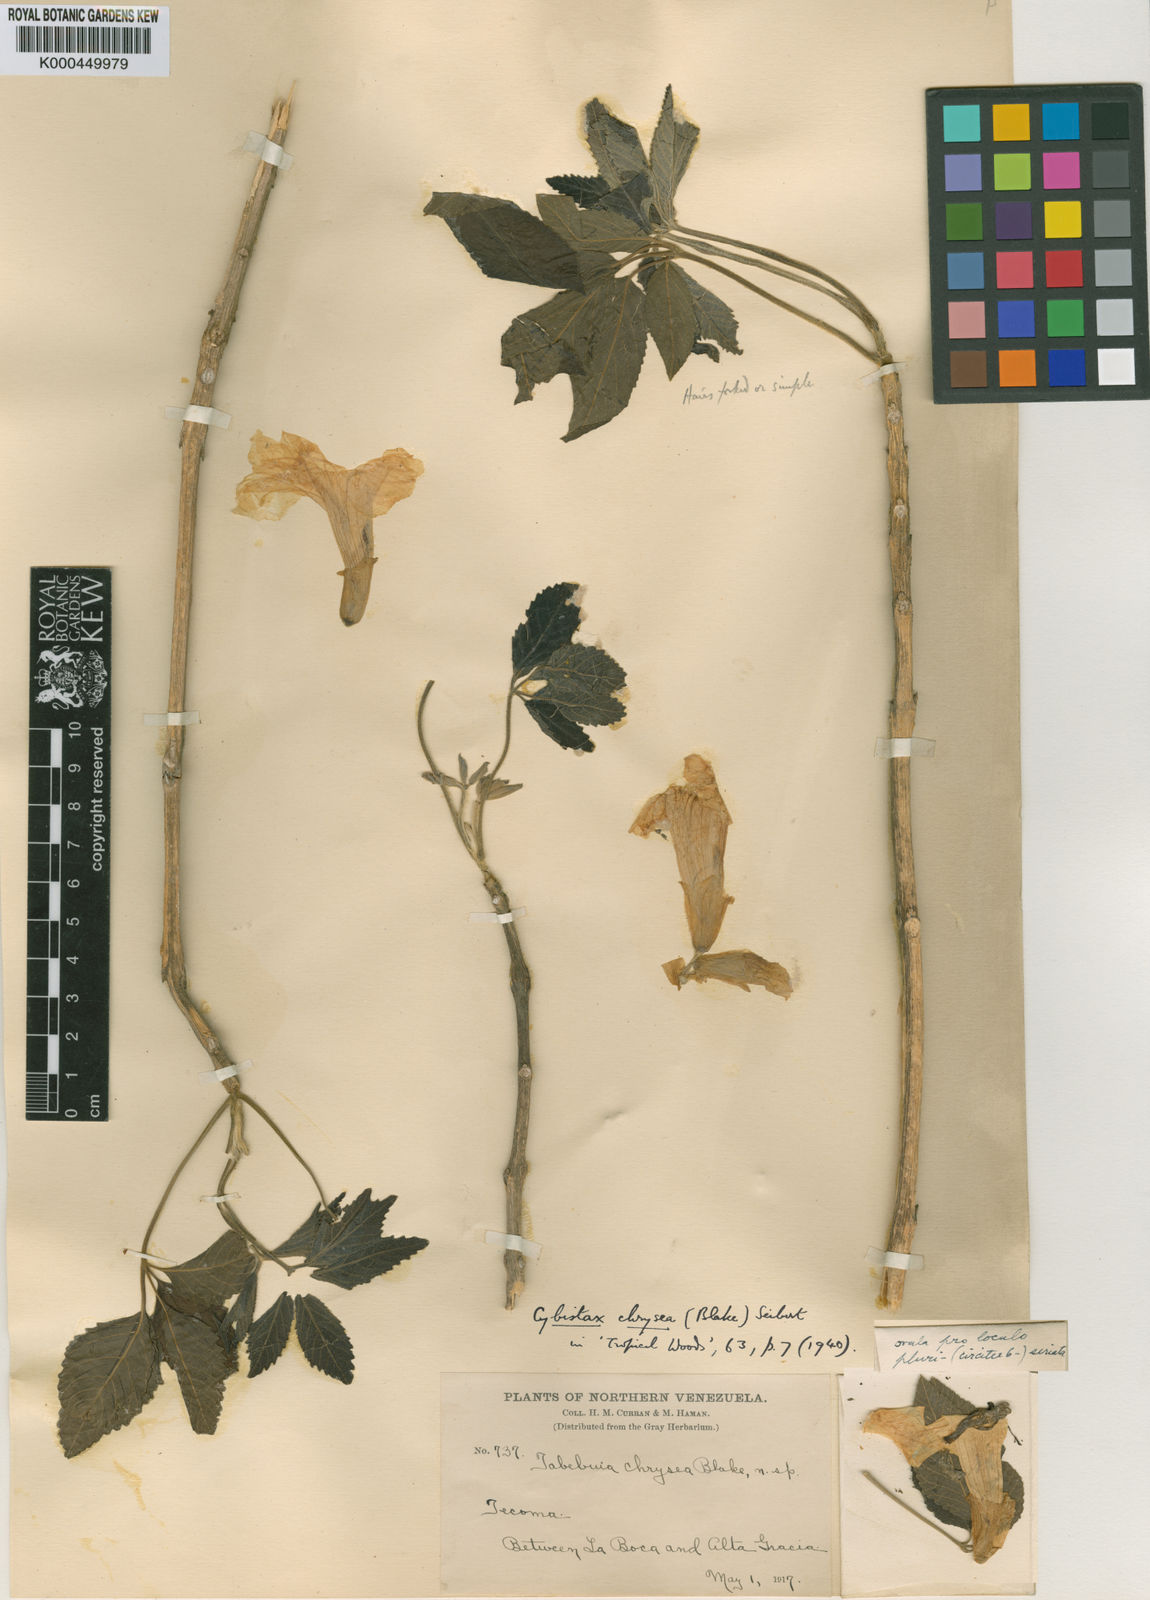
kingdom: Plantae
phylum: Tracheophyta
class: Magnoliopsida
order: Lamiales
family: Bignoniaceae
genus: Roseodendron
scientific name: Roseodendron chryseum
